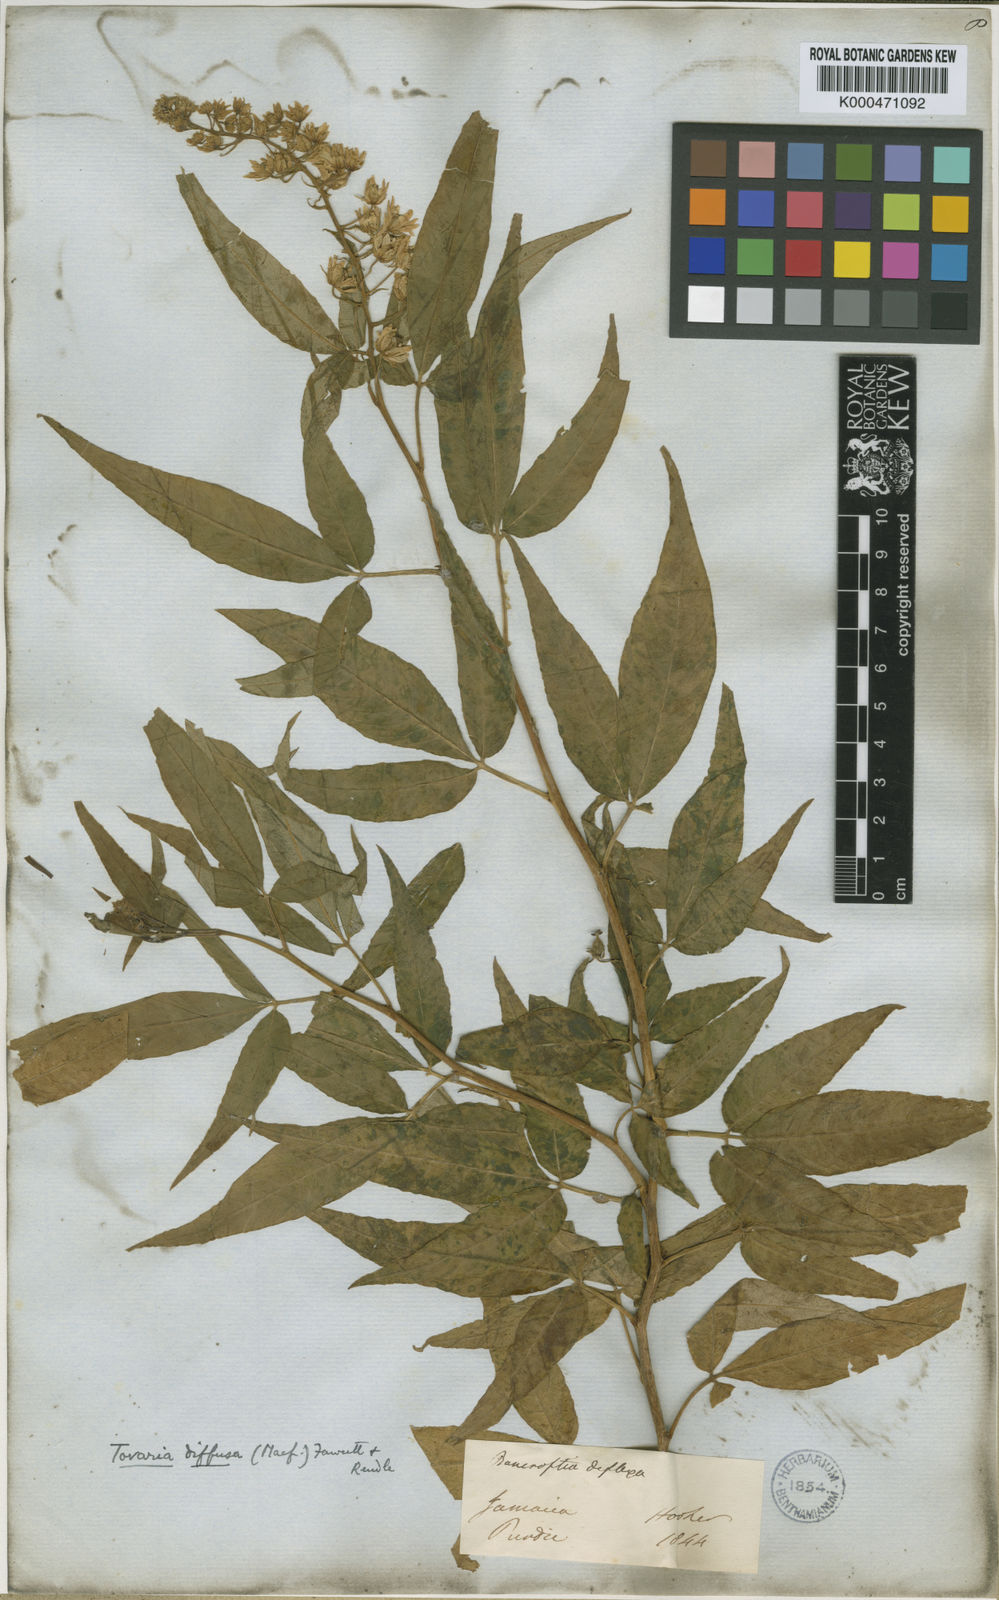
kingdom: Plantae
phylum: Tracheophyta
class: Magnoliopsida
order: Brassicales
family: Tovariaceae
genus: Tovaria
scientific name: Tovaria diffusa
